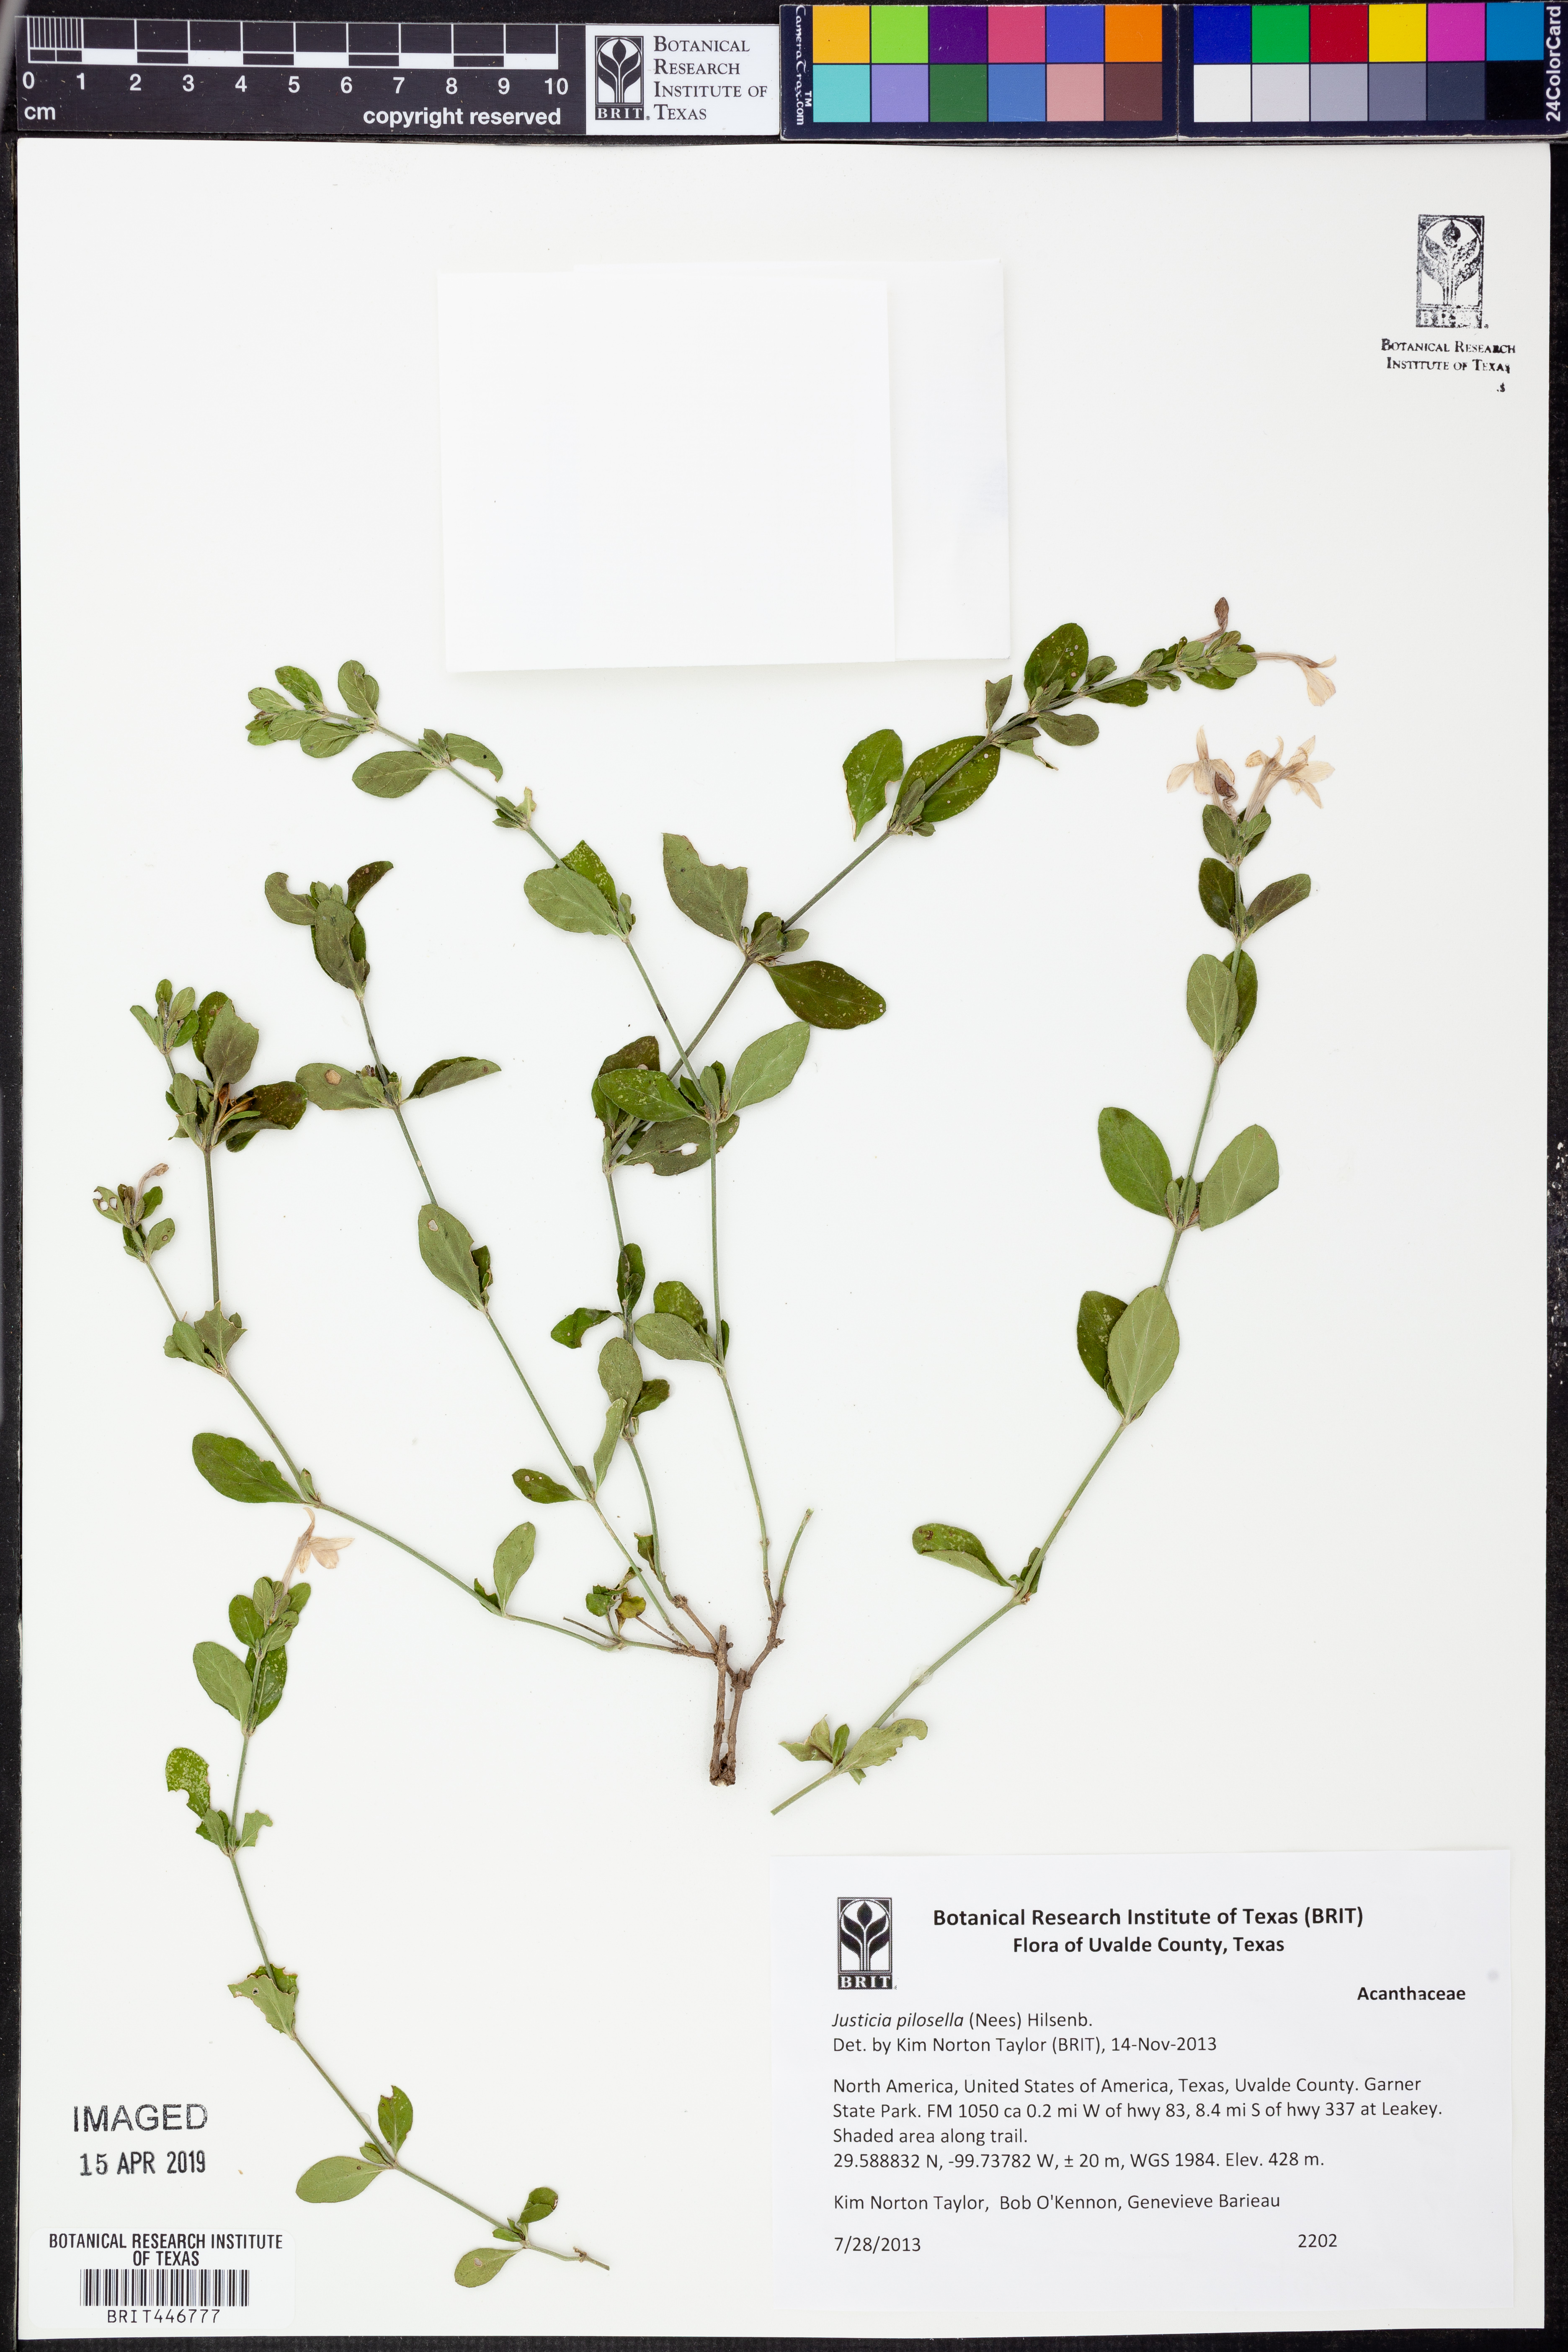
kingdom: Plantae
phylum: Tracheophyta
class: Magnoliopsida
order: Lamiales
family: Acanthaceae
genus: Justicia
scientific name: Justicia pilosella
